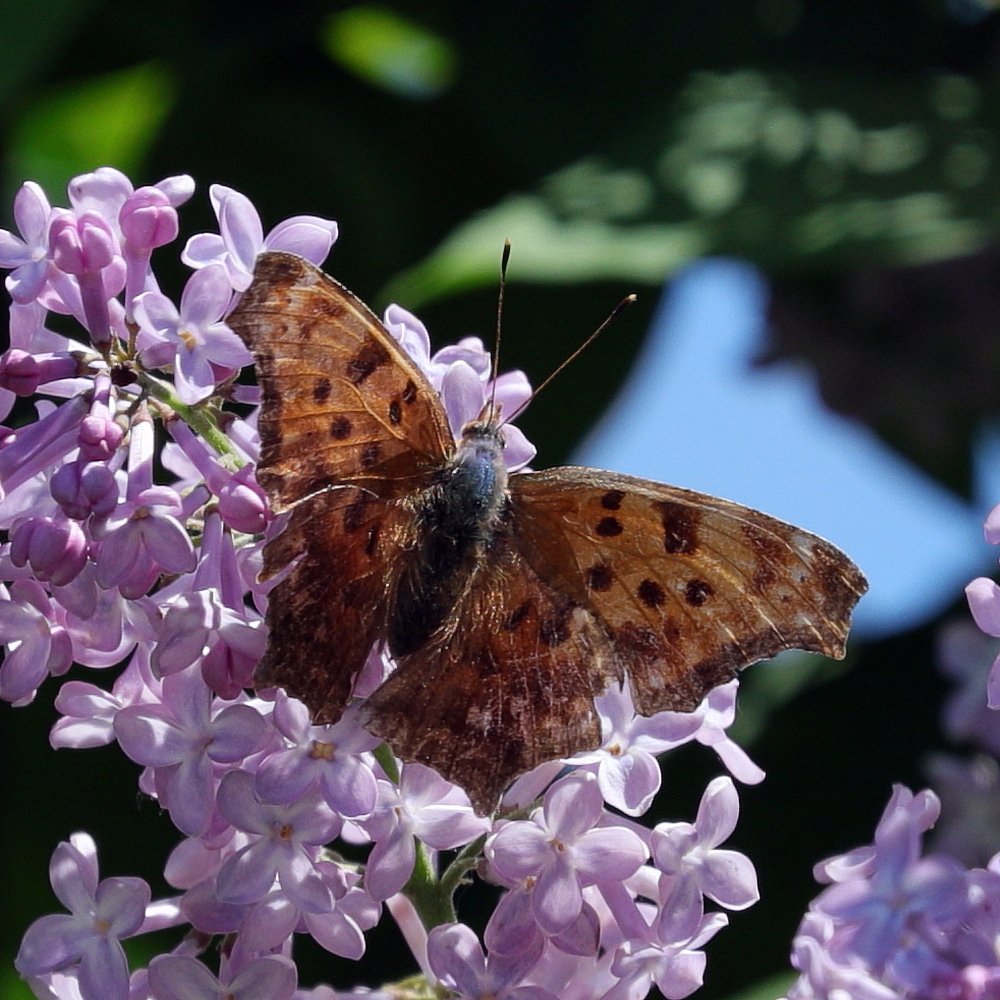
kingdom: Animalia
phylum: Arthropoda
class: Insecta
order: Lepidoptera
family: Nymphalidae
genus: Polygonia
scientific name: Polygonia comma
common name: Eastern Comma
